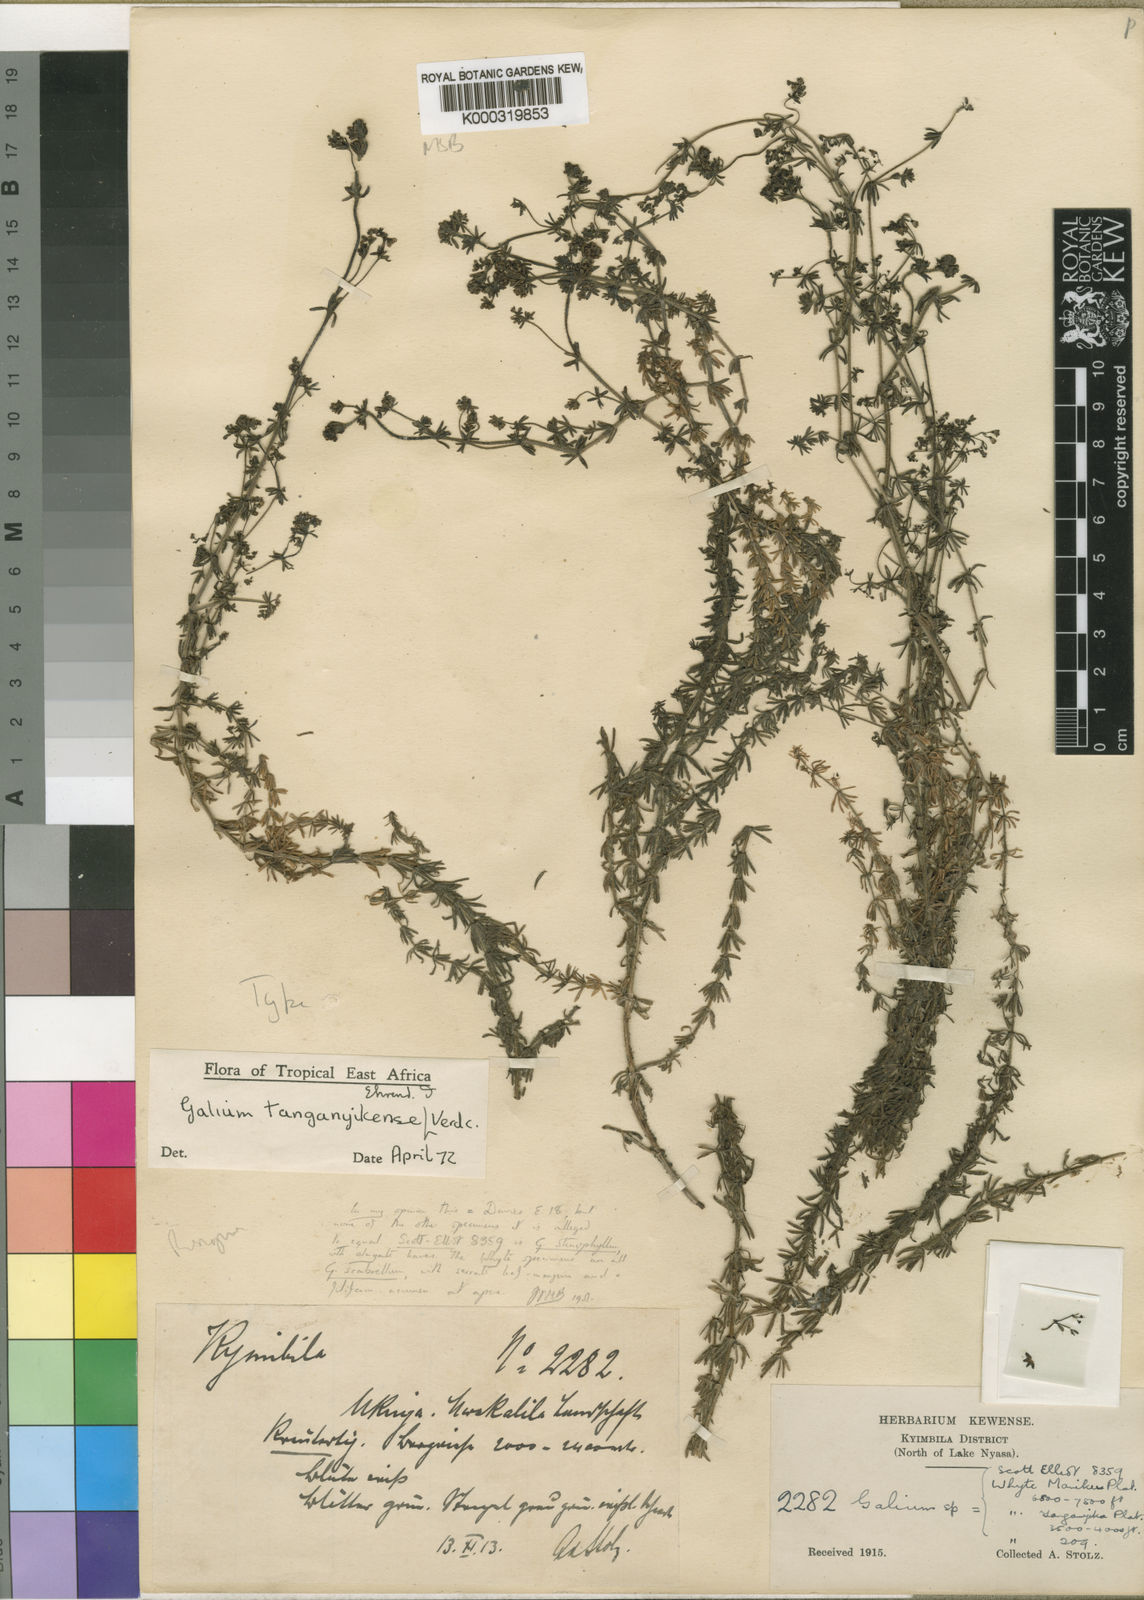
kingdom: Plantae
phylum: Tracheophyta
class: Magnoliopsida
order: Gentianales
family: Rubiaceae
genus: Galium
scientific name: Galium tanganyikense
